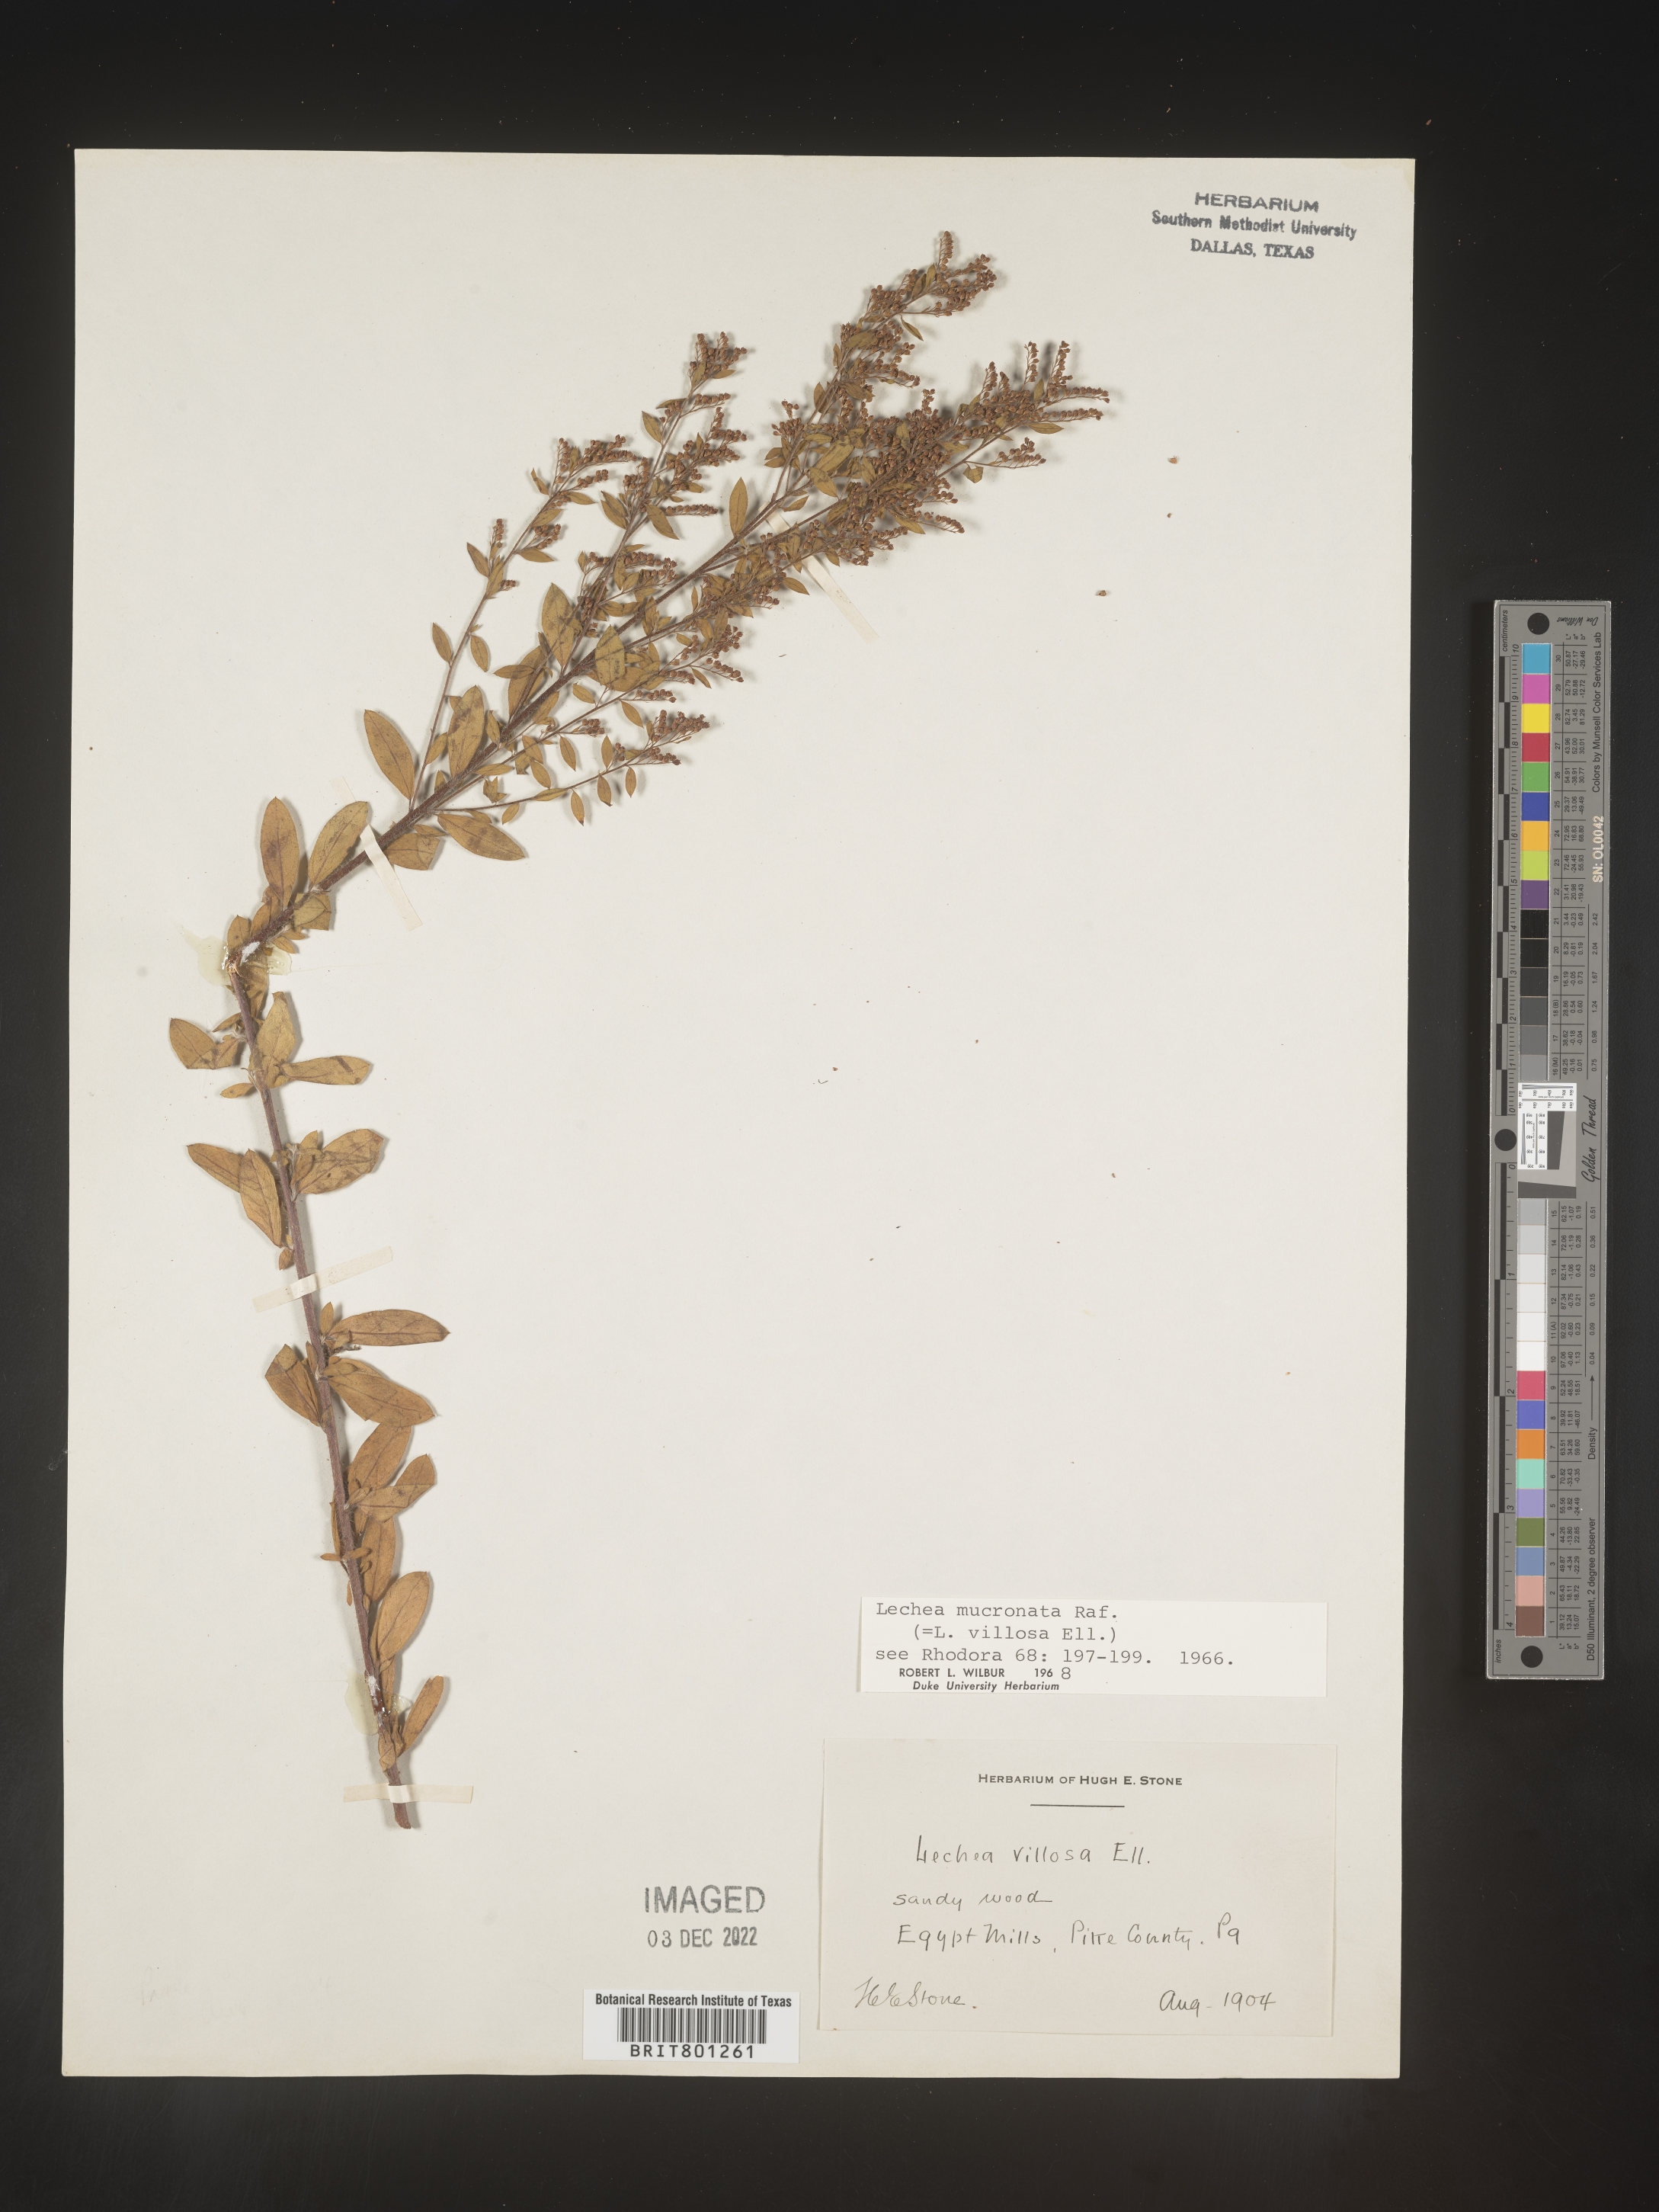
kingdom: Plantae
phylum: Tracheophyta
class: Magnoliopsida
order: Malvales
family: Cistaceae
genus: Lechea
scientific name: Lechea mucronata
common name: Hairy pinweed
